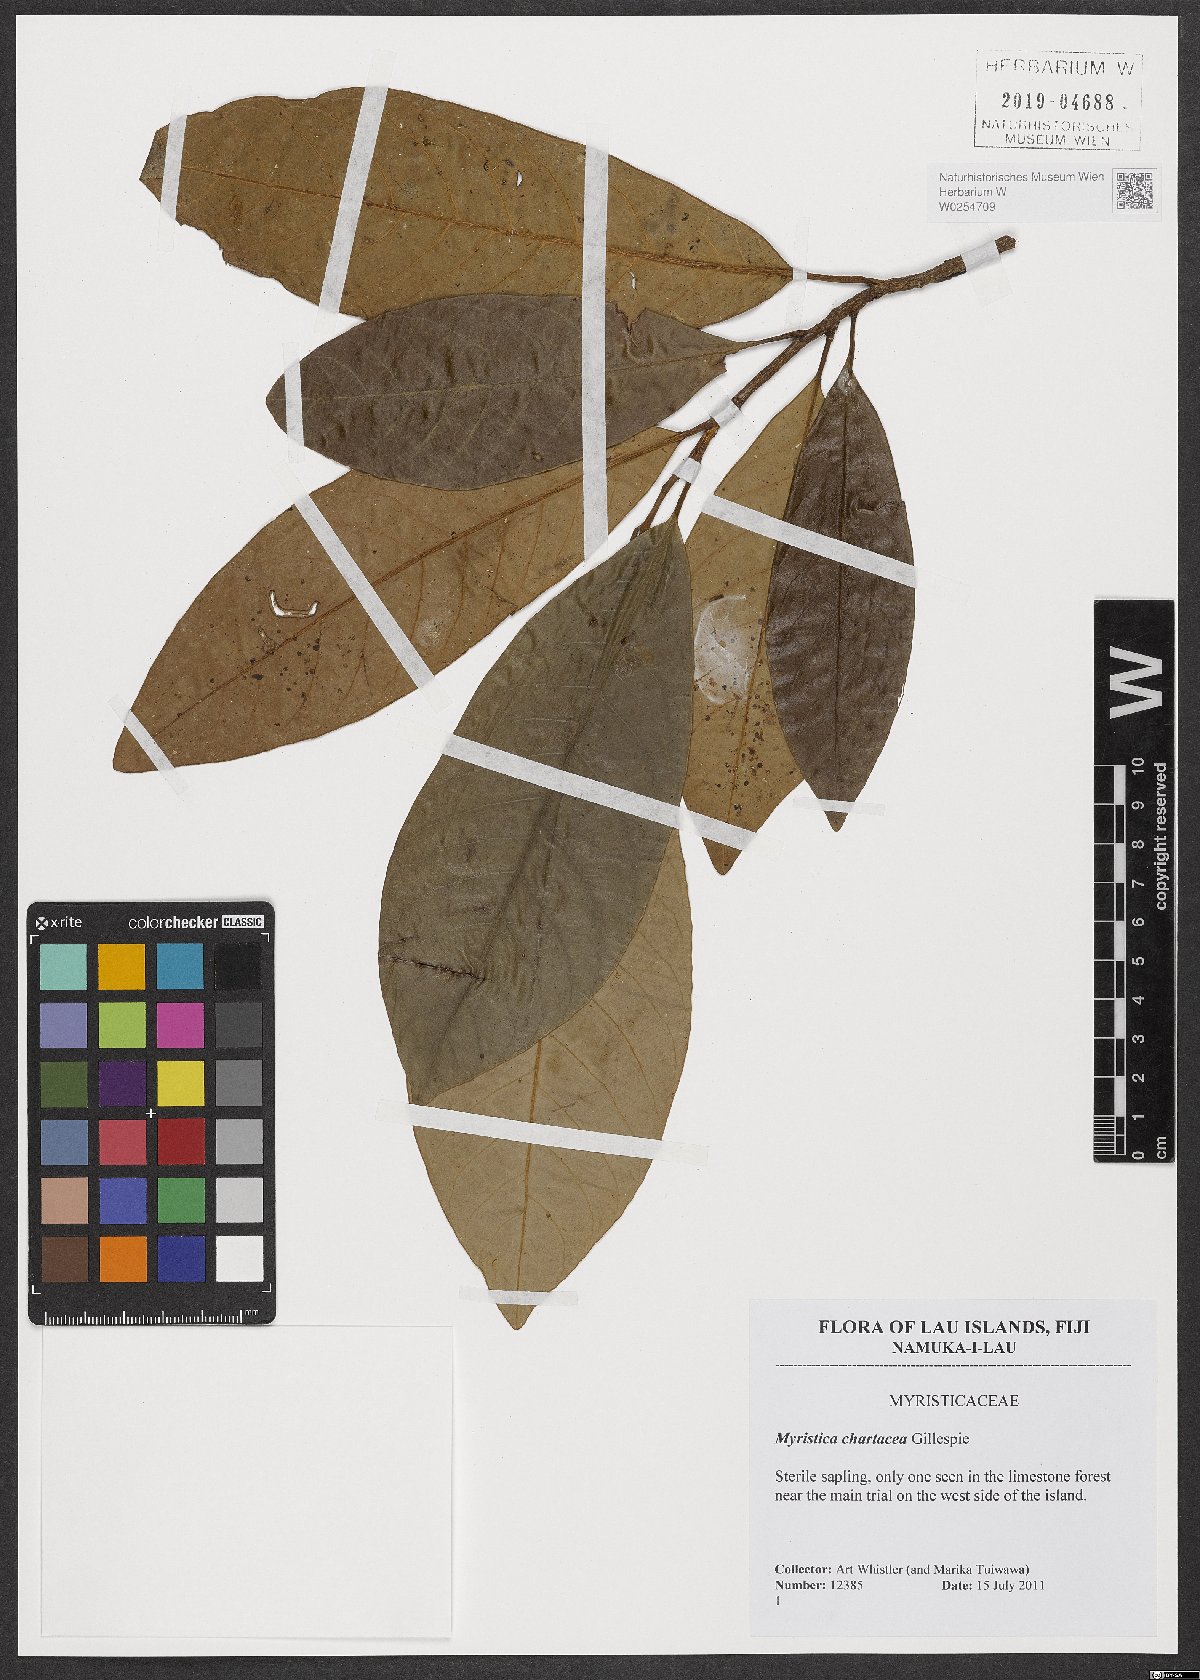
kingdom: Plantae
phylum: Tracheophyta
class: Magnoliopsida
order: Magnoliales
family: Myristicaceae
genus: Myristica
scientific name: Myristica chartacea
